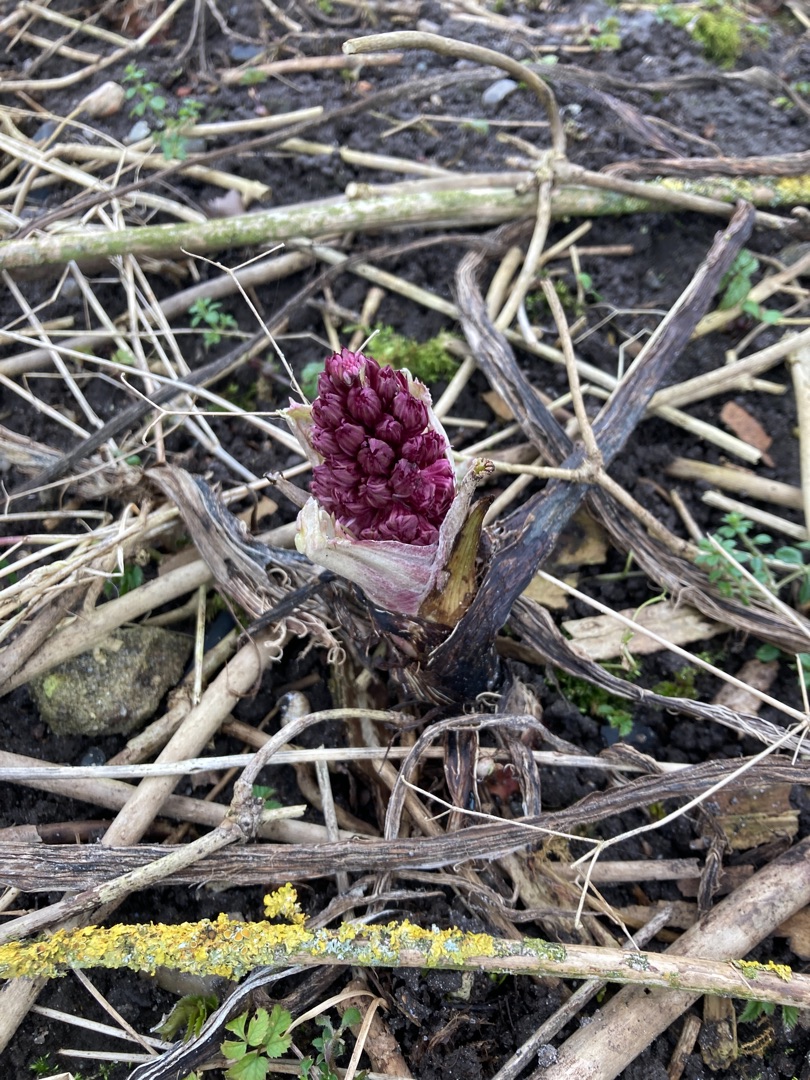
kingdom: Plantae
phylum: Tracheophyta
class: Magnoliopsida
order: Asterales
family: Asteraceae
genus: Petasites
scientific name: Petasites hybridus
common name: Rød hestehov
